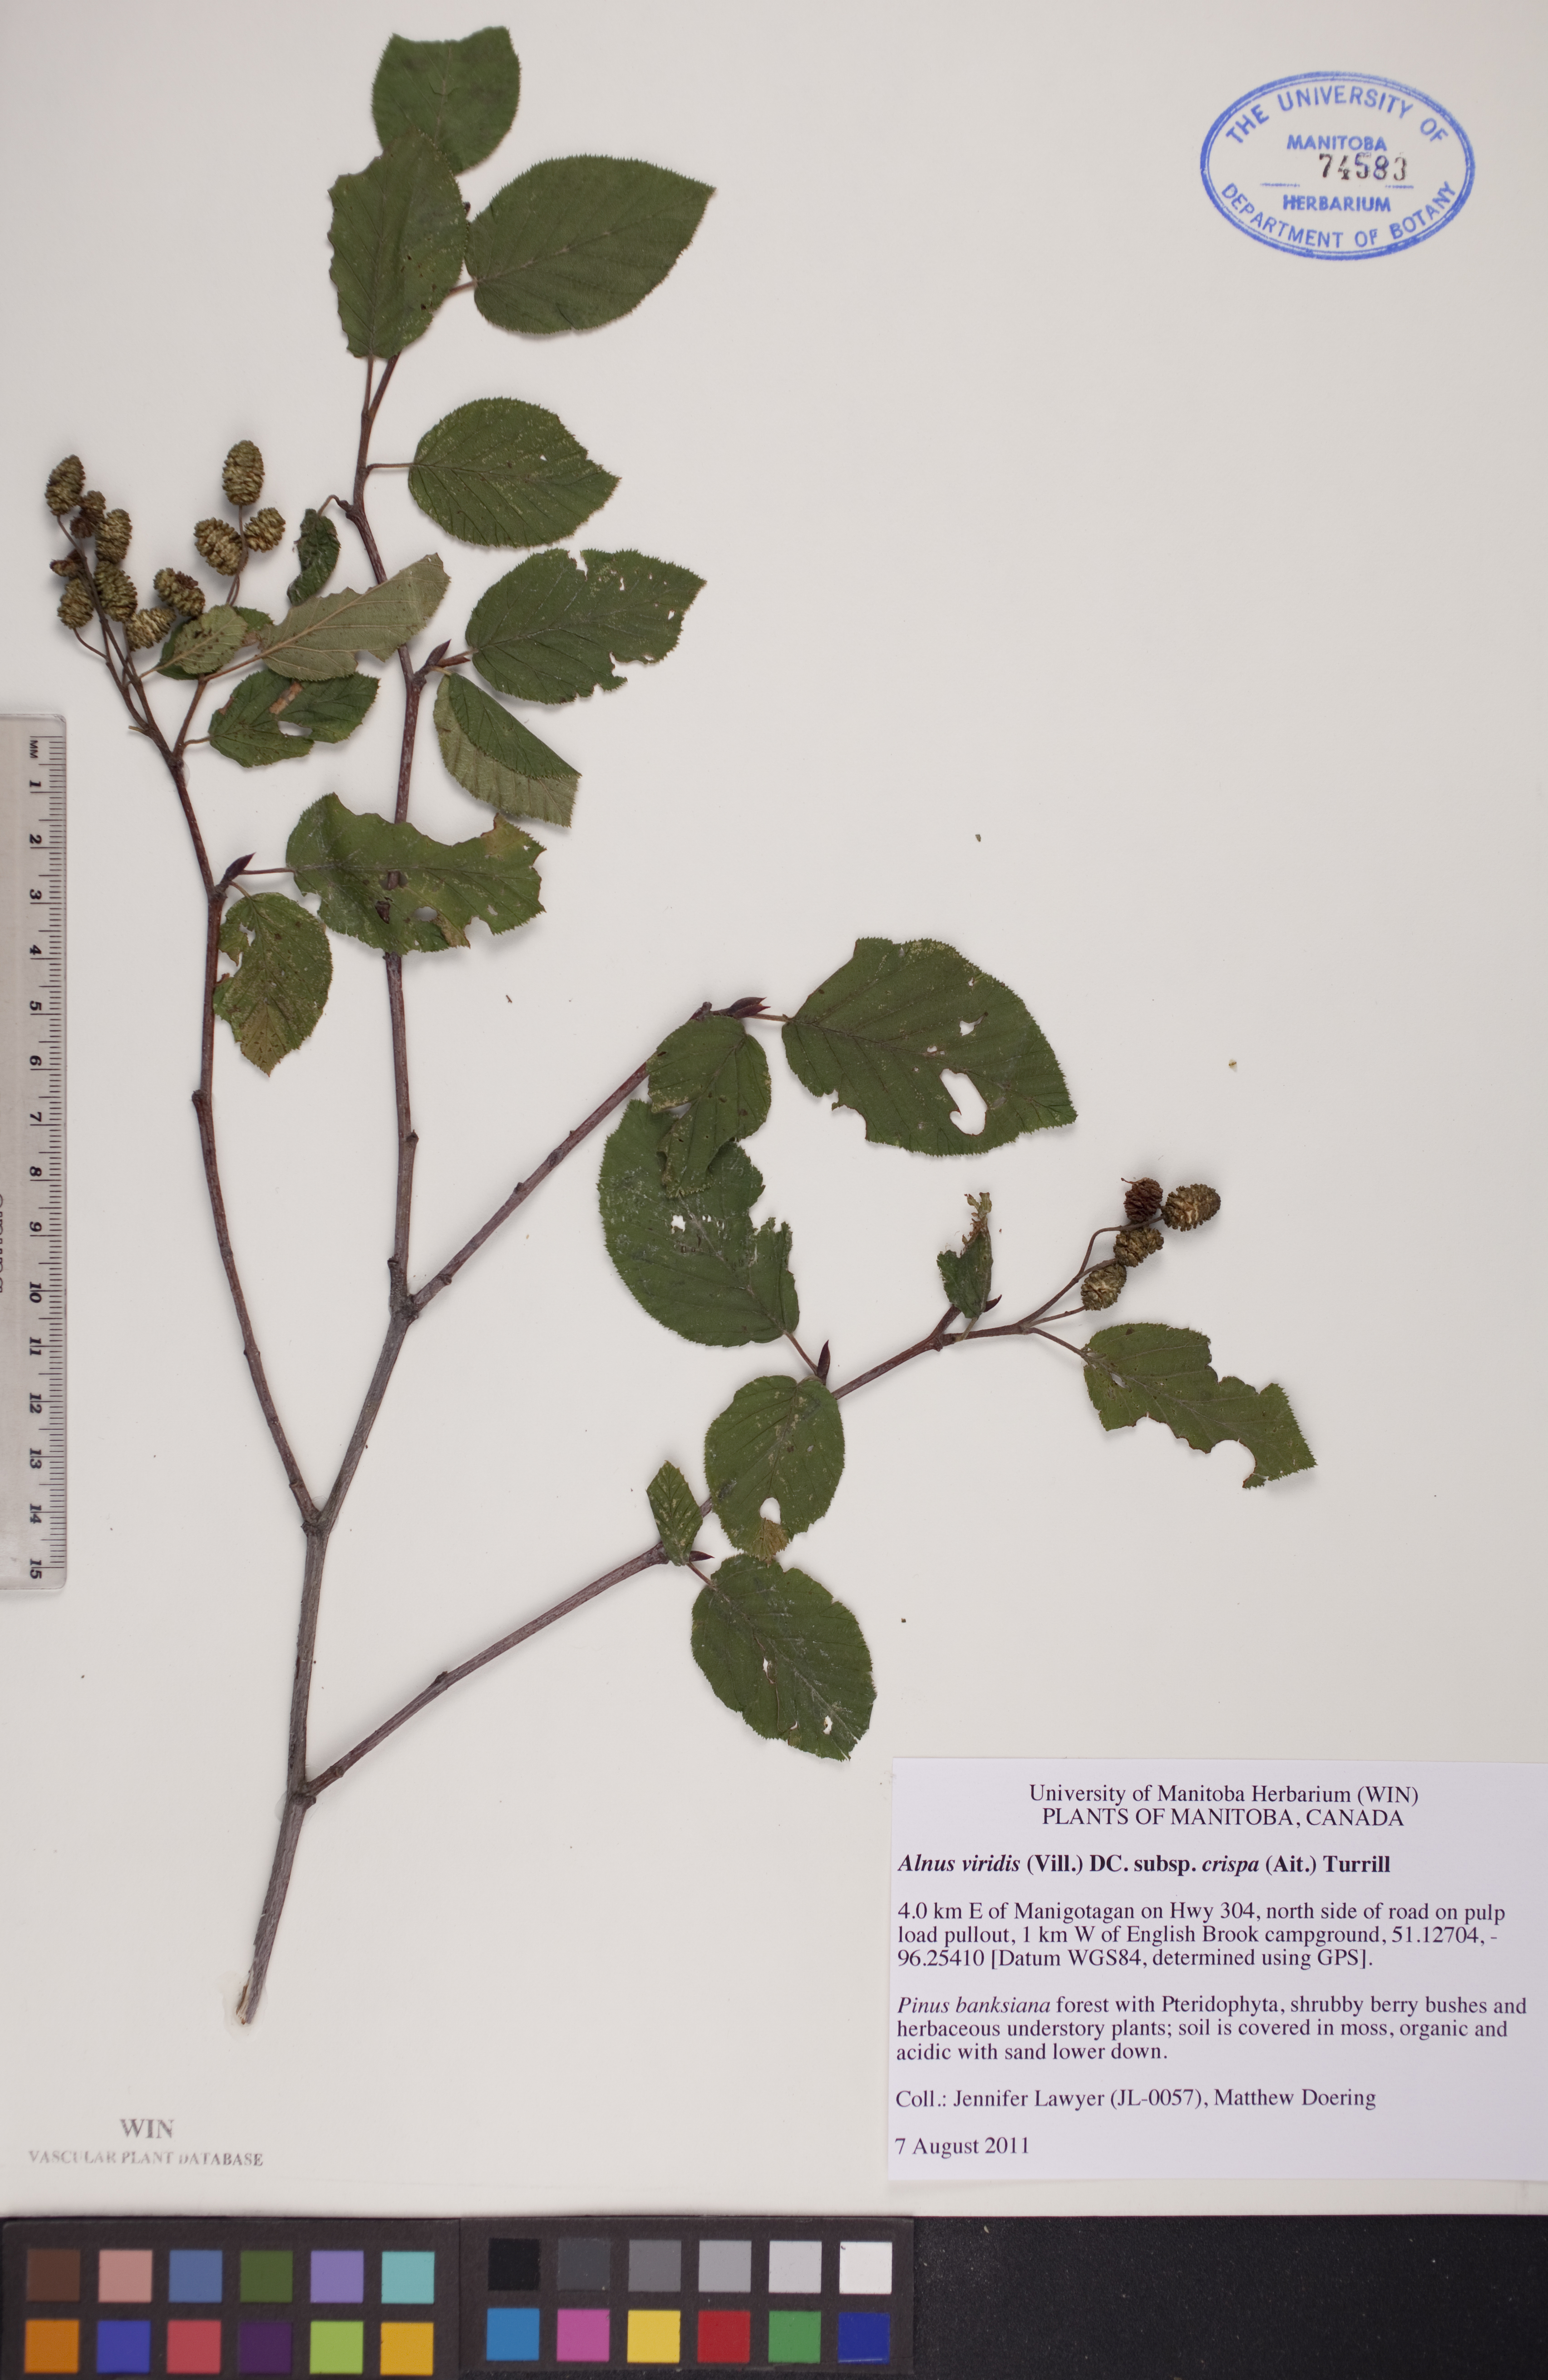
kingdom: Plantae
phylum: Tracheophyta
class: Magnoliopsida
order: Fagales
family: Betulaceae
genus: Alnus
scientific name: Alnus alnobetula
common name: Green alder
